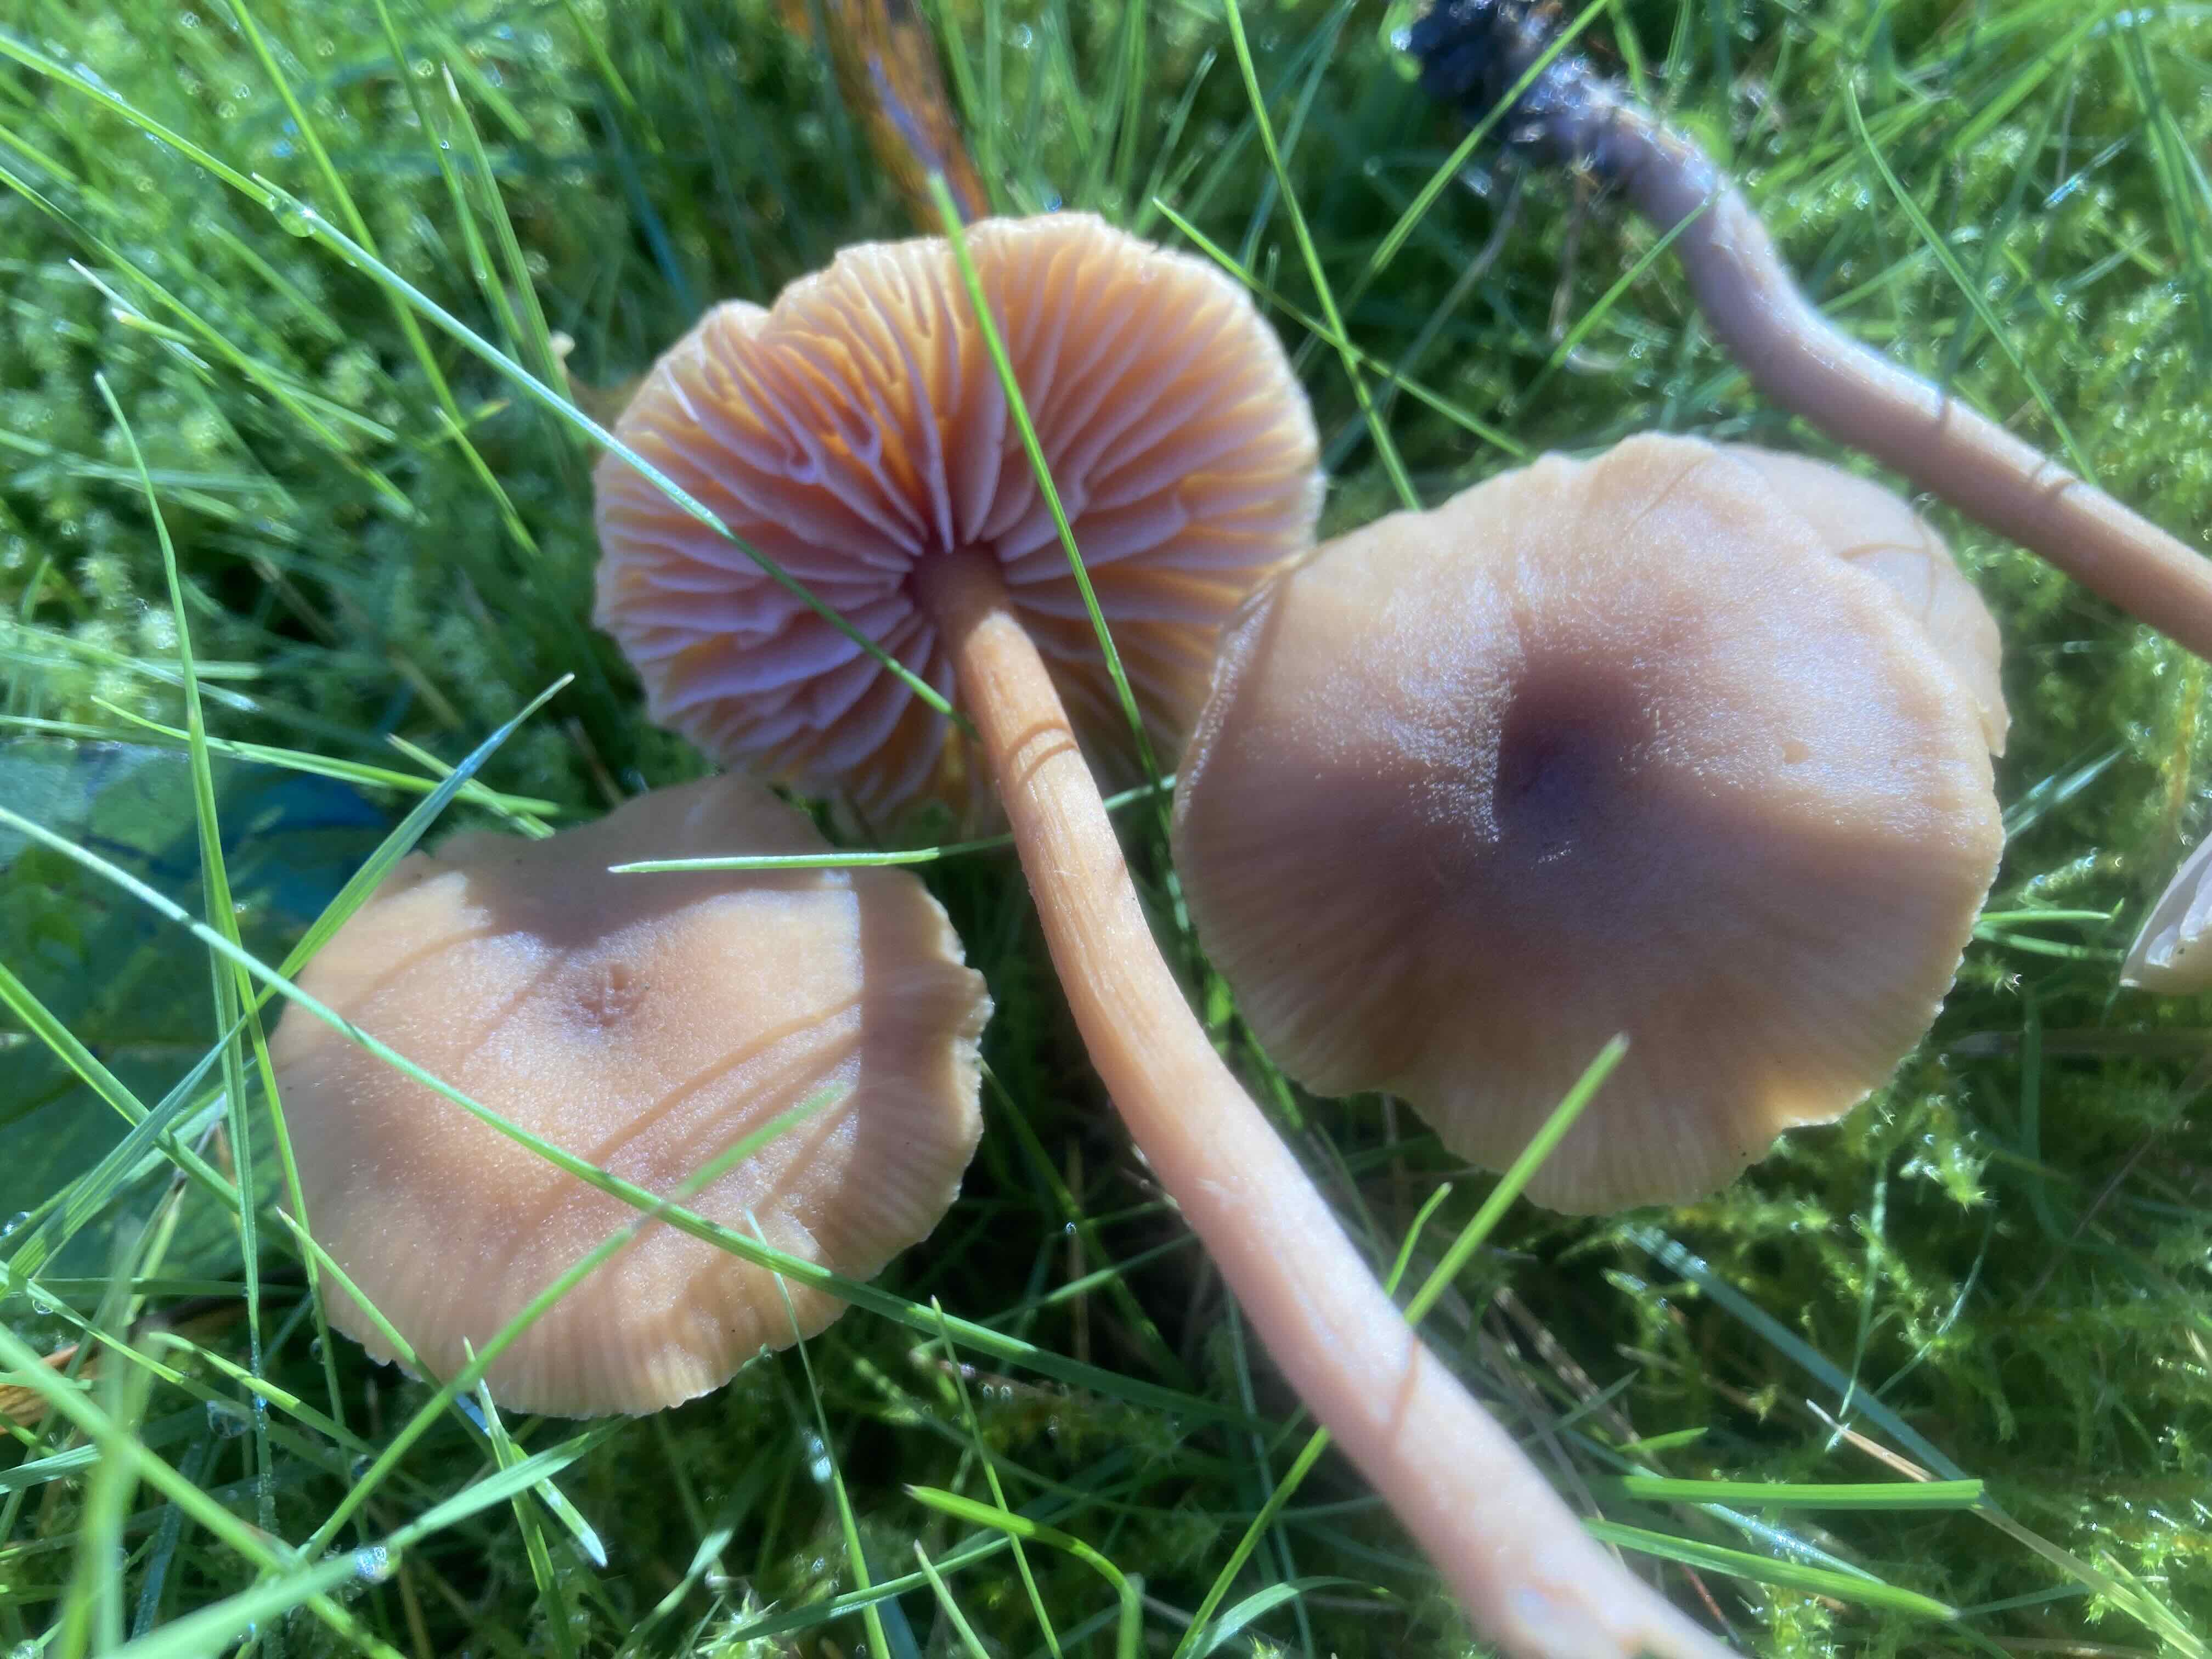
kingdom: Fungi
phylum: Basidiomycota
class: Agaricomycetes
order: Agaricales
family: Hydnangiaceae
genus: Laccaria
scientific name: Laccaria laccata
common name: rød ametysthat
